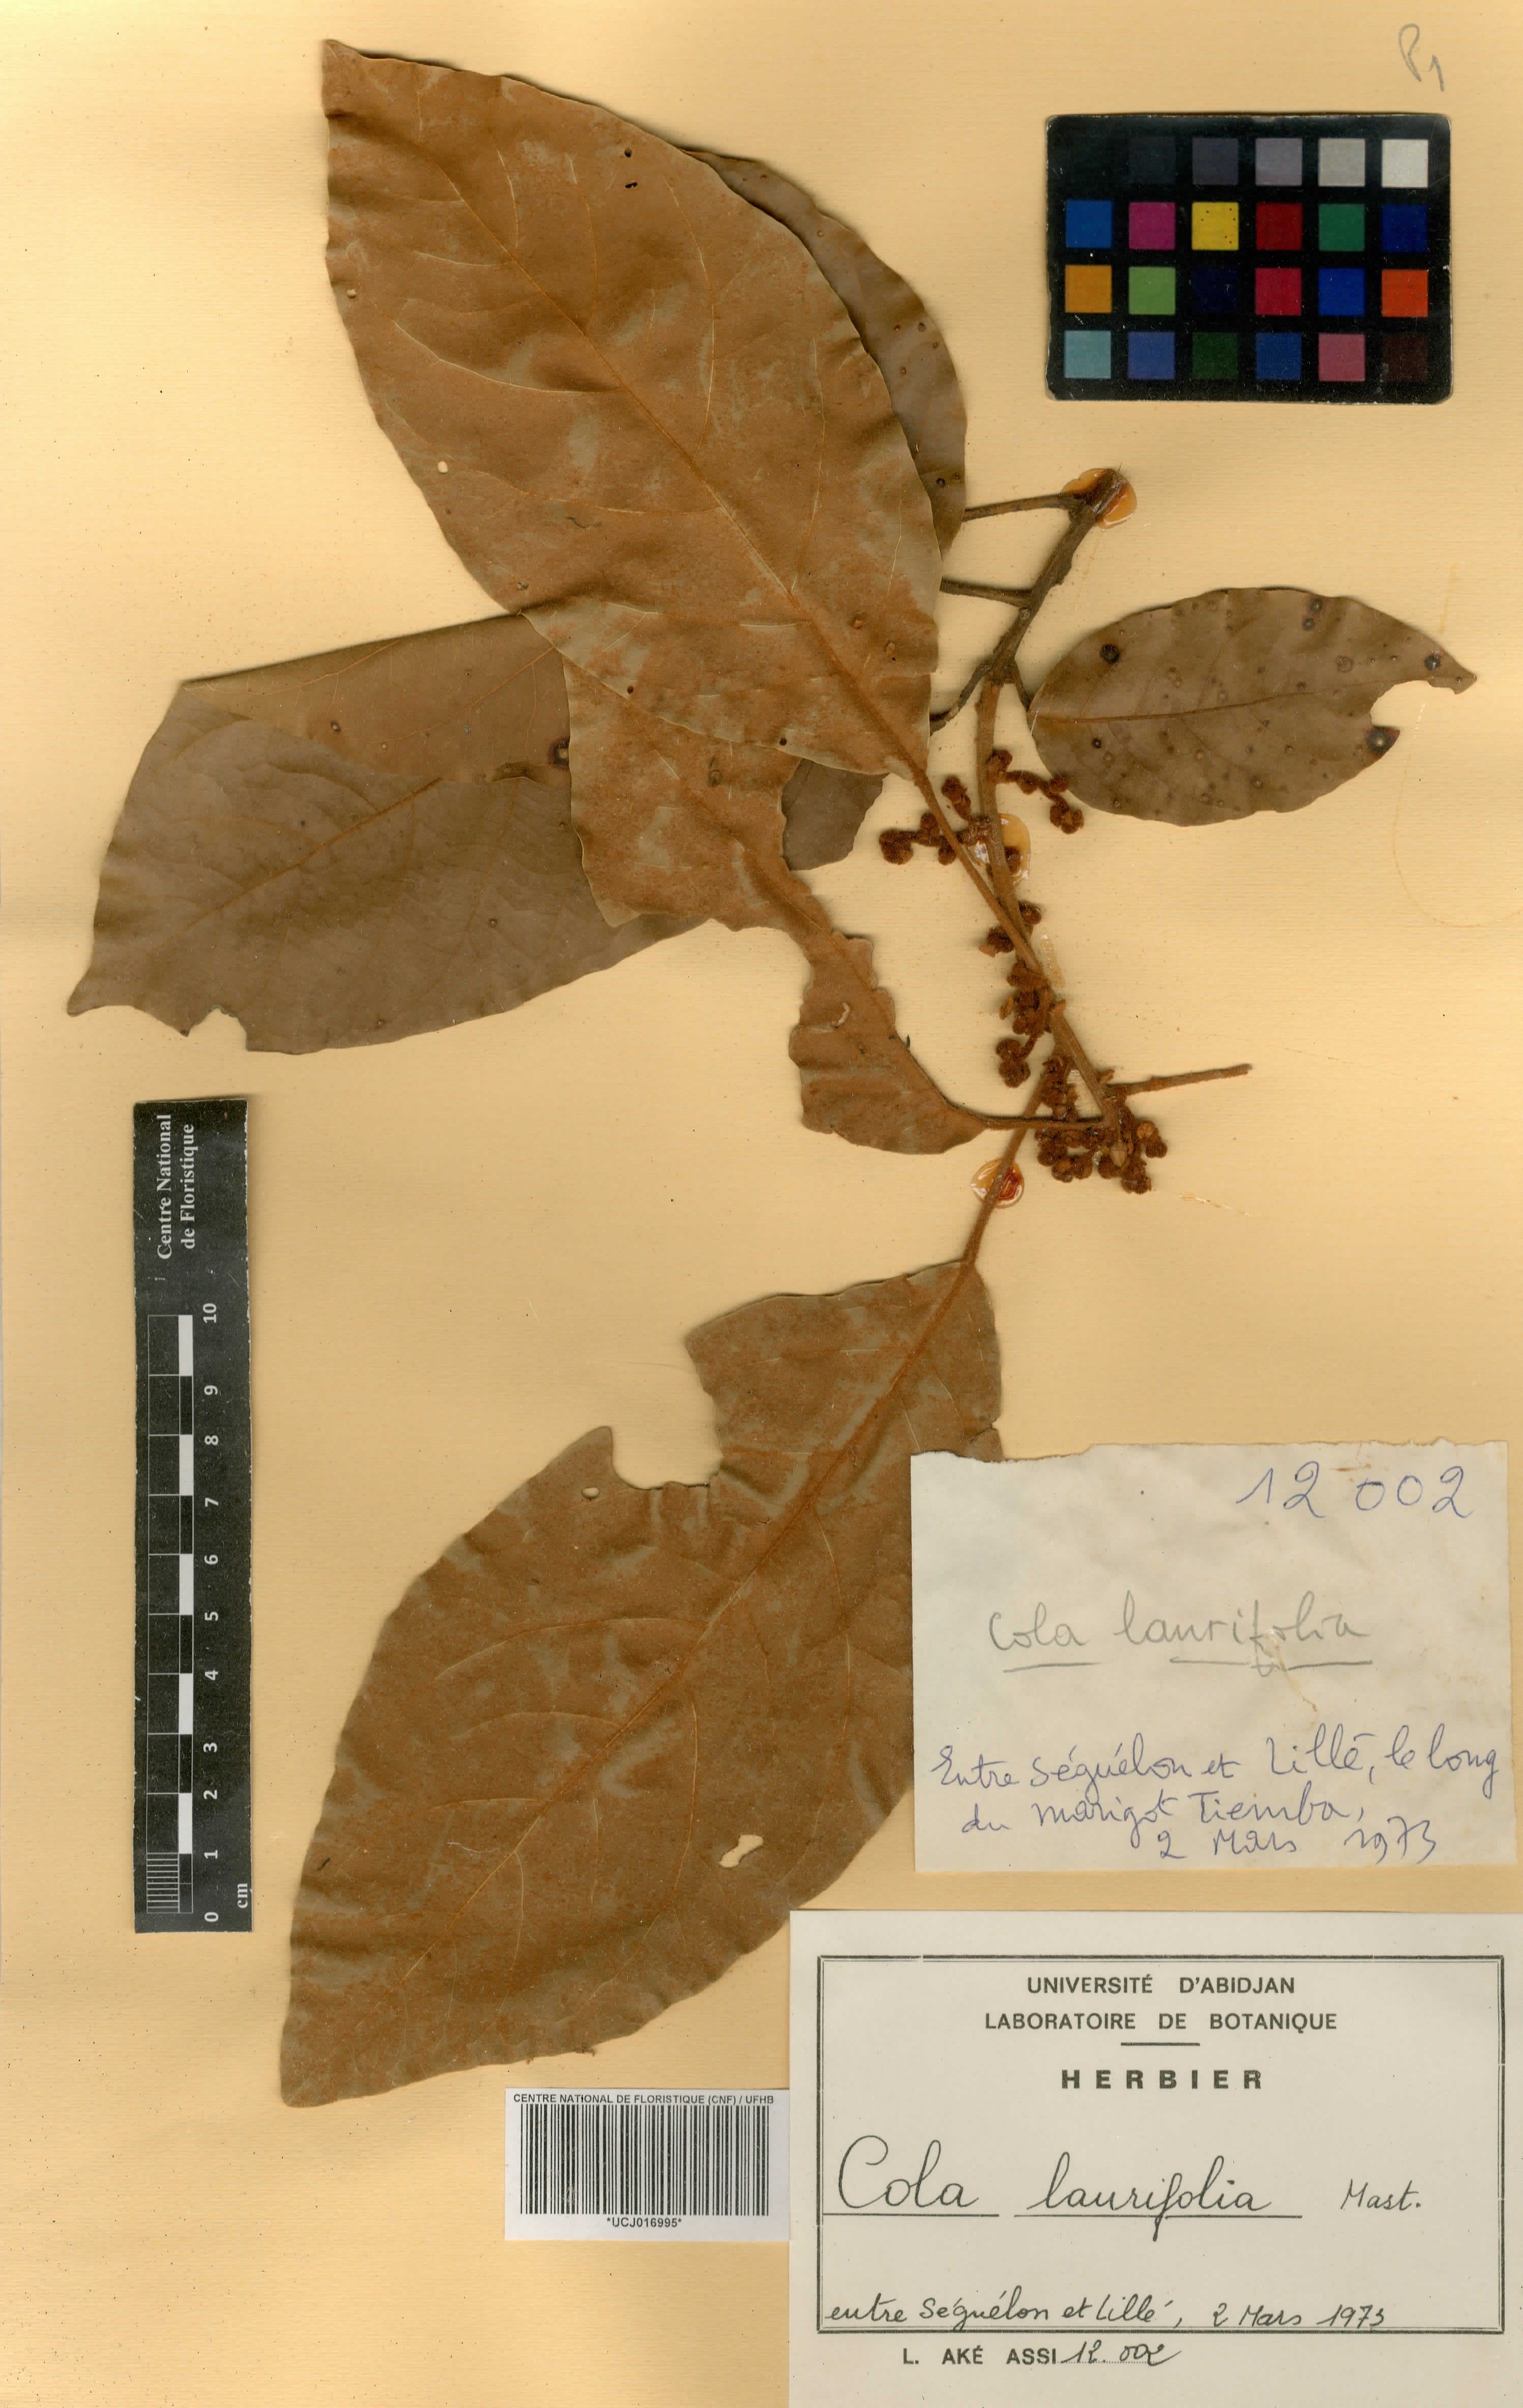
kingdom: Plantae
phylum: Tracheophyta
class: Magnoliopsida
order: Malvales
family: Malvaceae
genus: Cola
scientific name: Cola laurifolia
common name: Laurel-leaved kola
